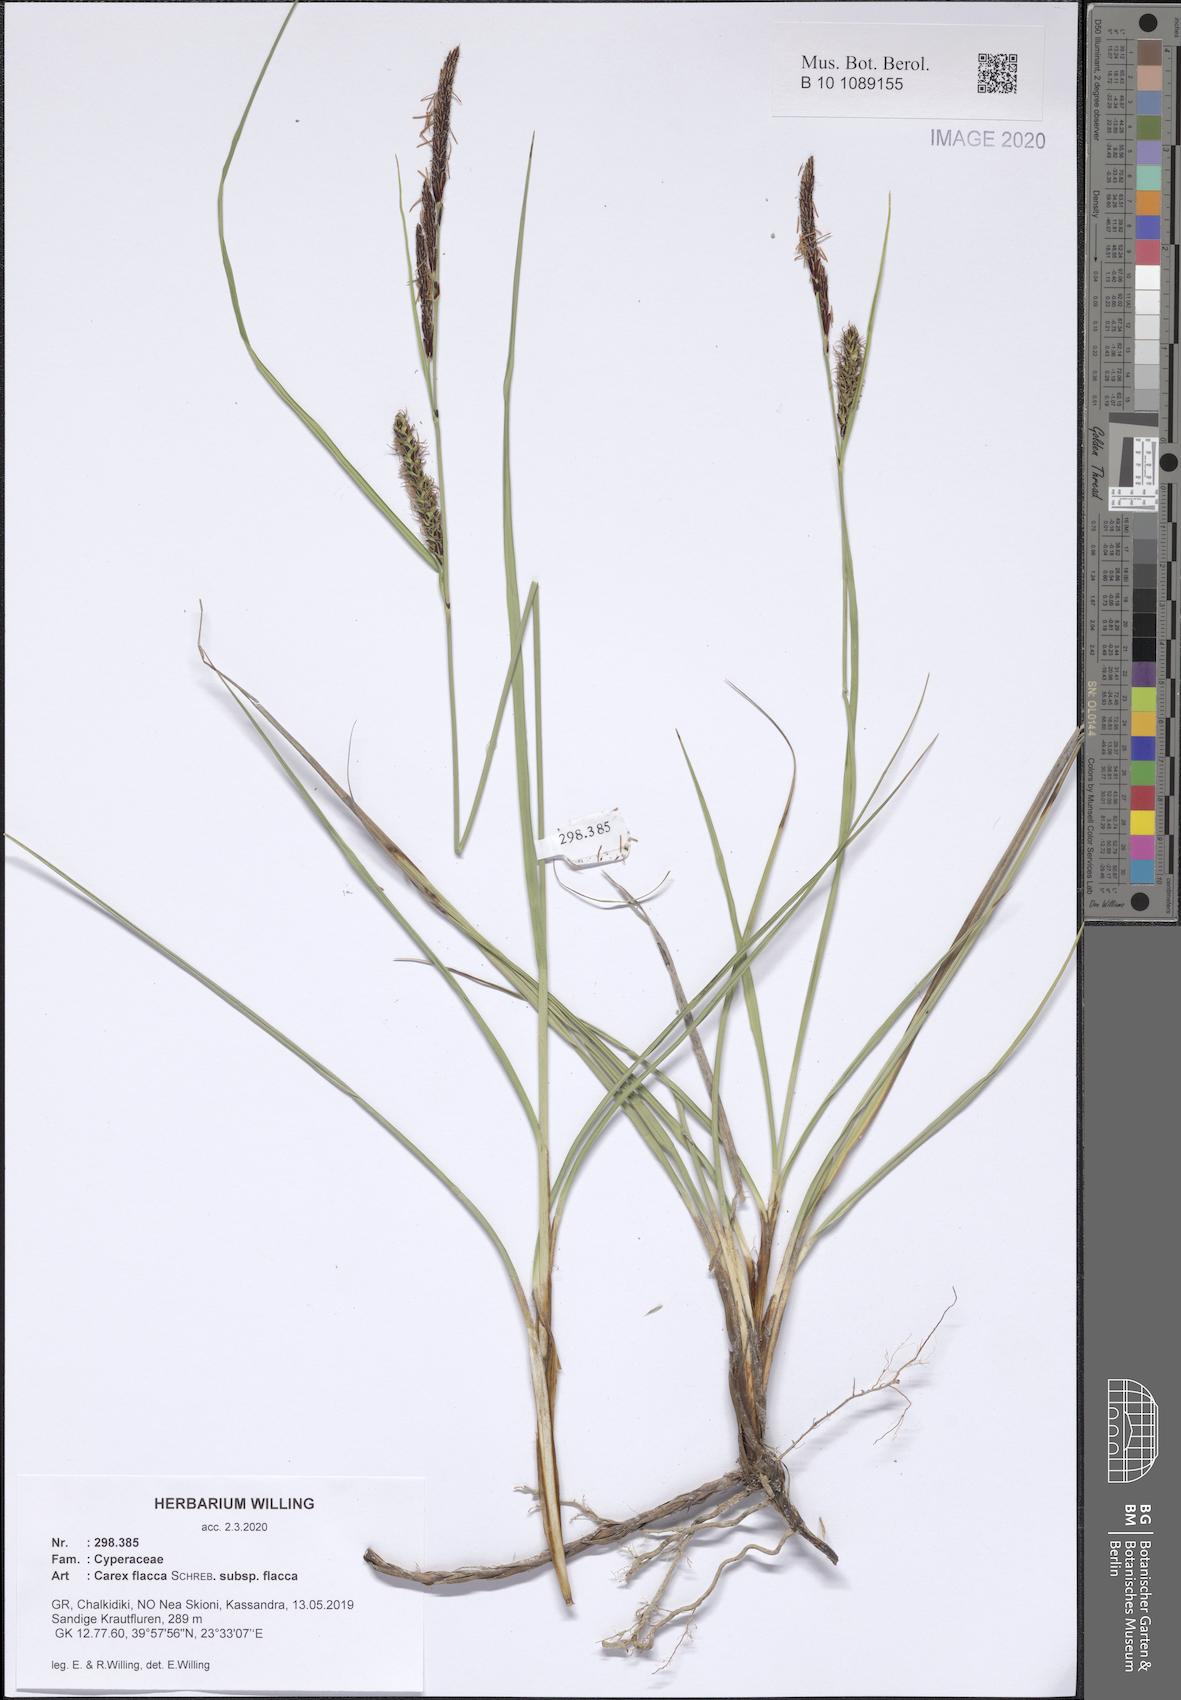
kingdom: Plantae
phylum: Tracheophyta
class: Liliopsida
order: Poales
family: Cyperaceae
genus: Carex
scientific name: Carex flacca
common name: Glaucous sedge
